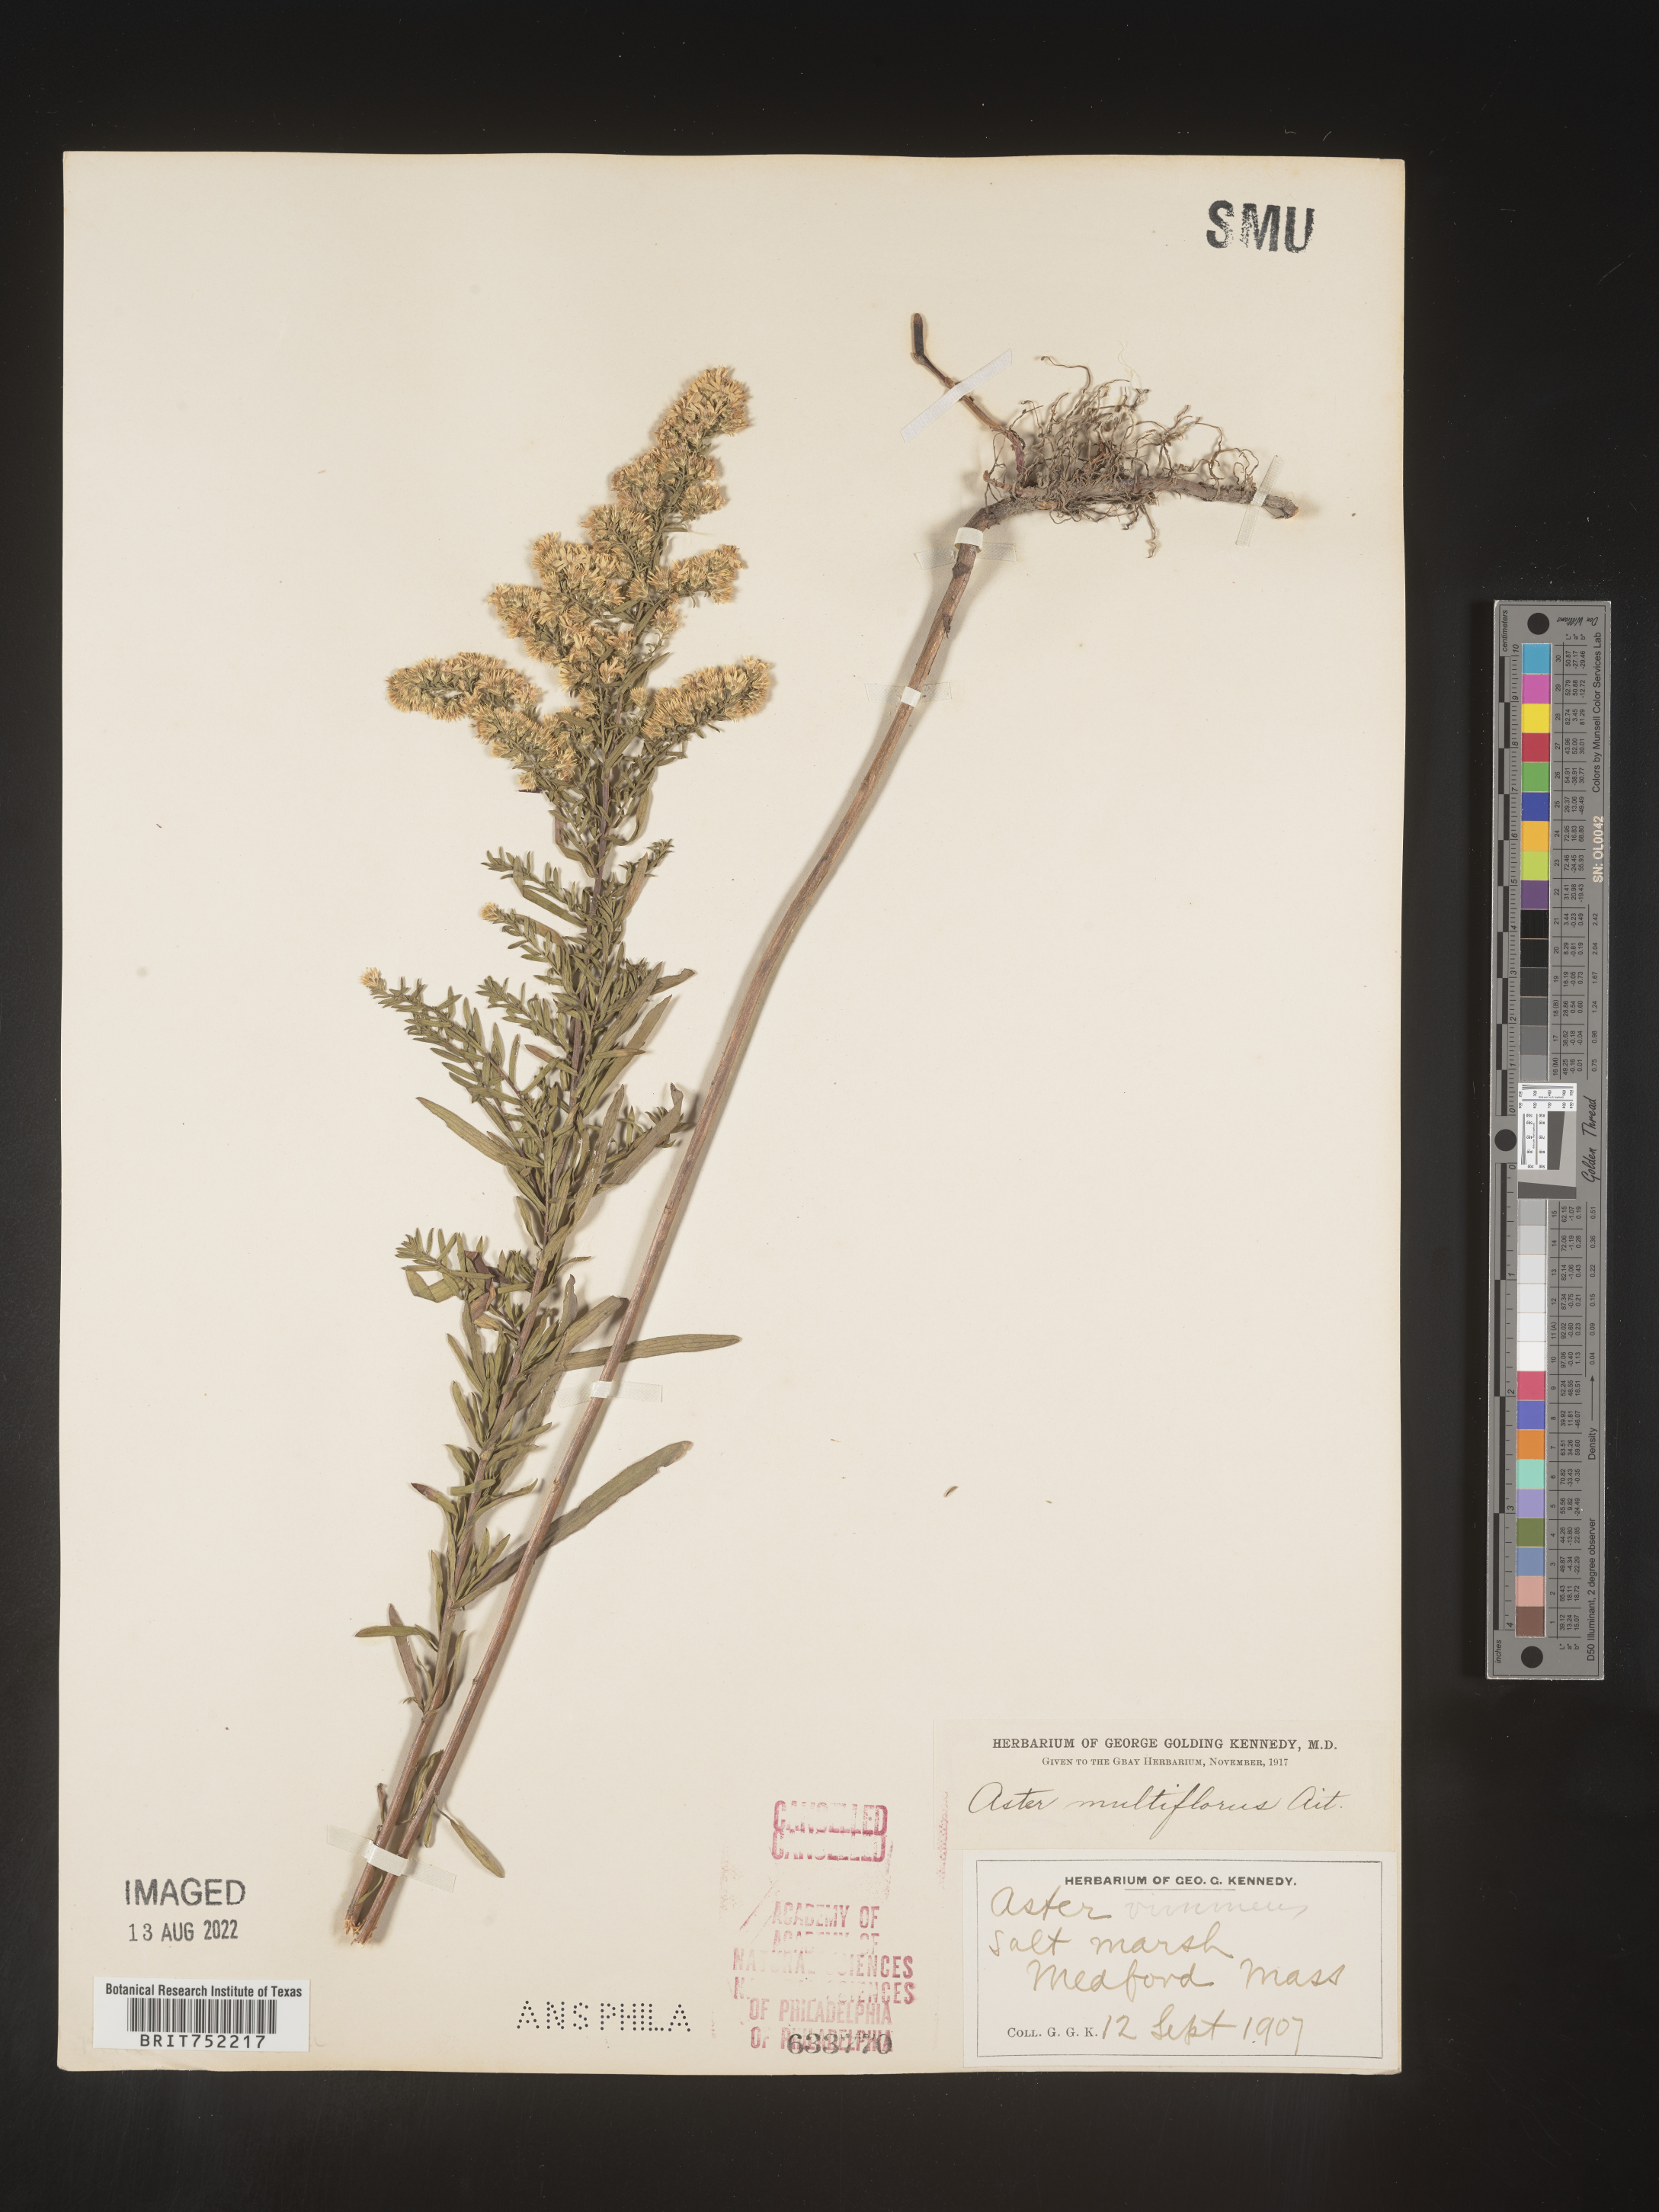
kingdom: Plantae
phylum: Tracheophyta
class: Magnoliopsida
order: Asterales
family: Asteraceae
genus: Symphyotrichum
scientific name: Symphyotrichum ericoides
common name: Heath aster
